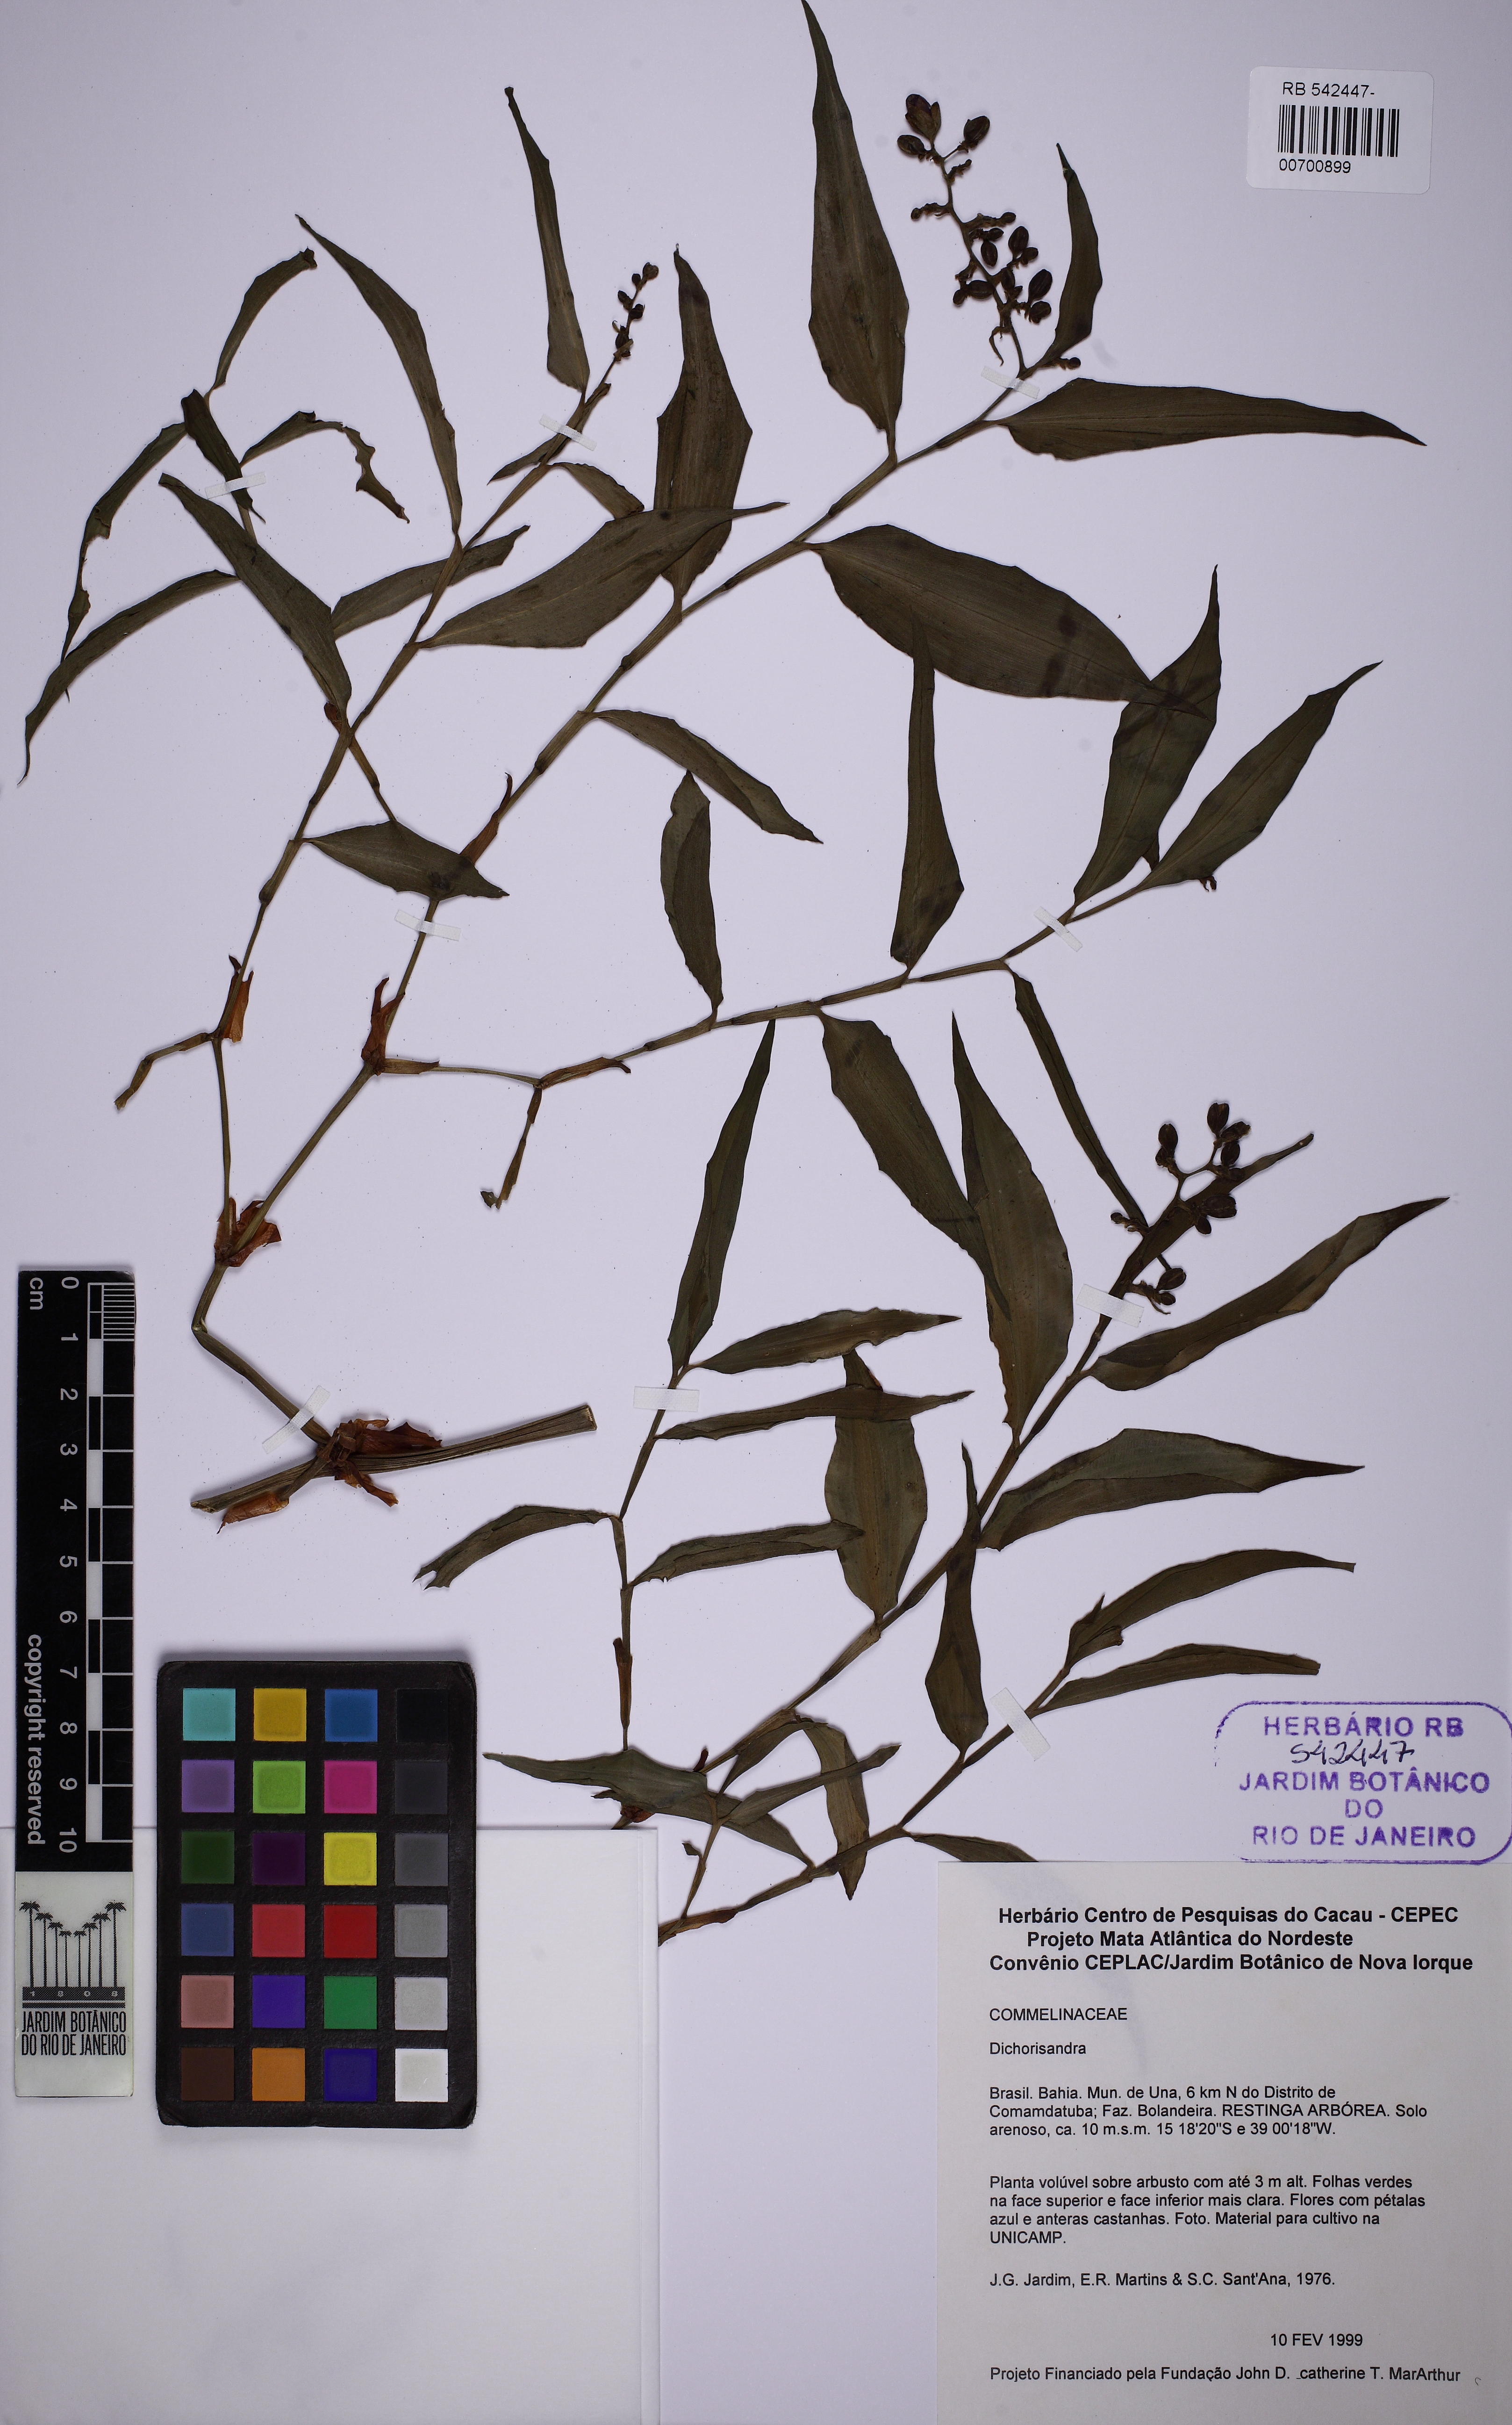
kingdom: Plantae
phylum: Tracheophyta
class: Liliopsida
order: Commelinales
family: Commelinaceae
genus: Dichorisandra
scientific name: Dichorisandra hexandra
